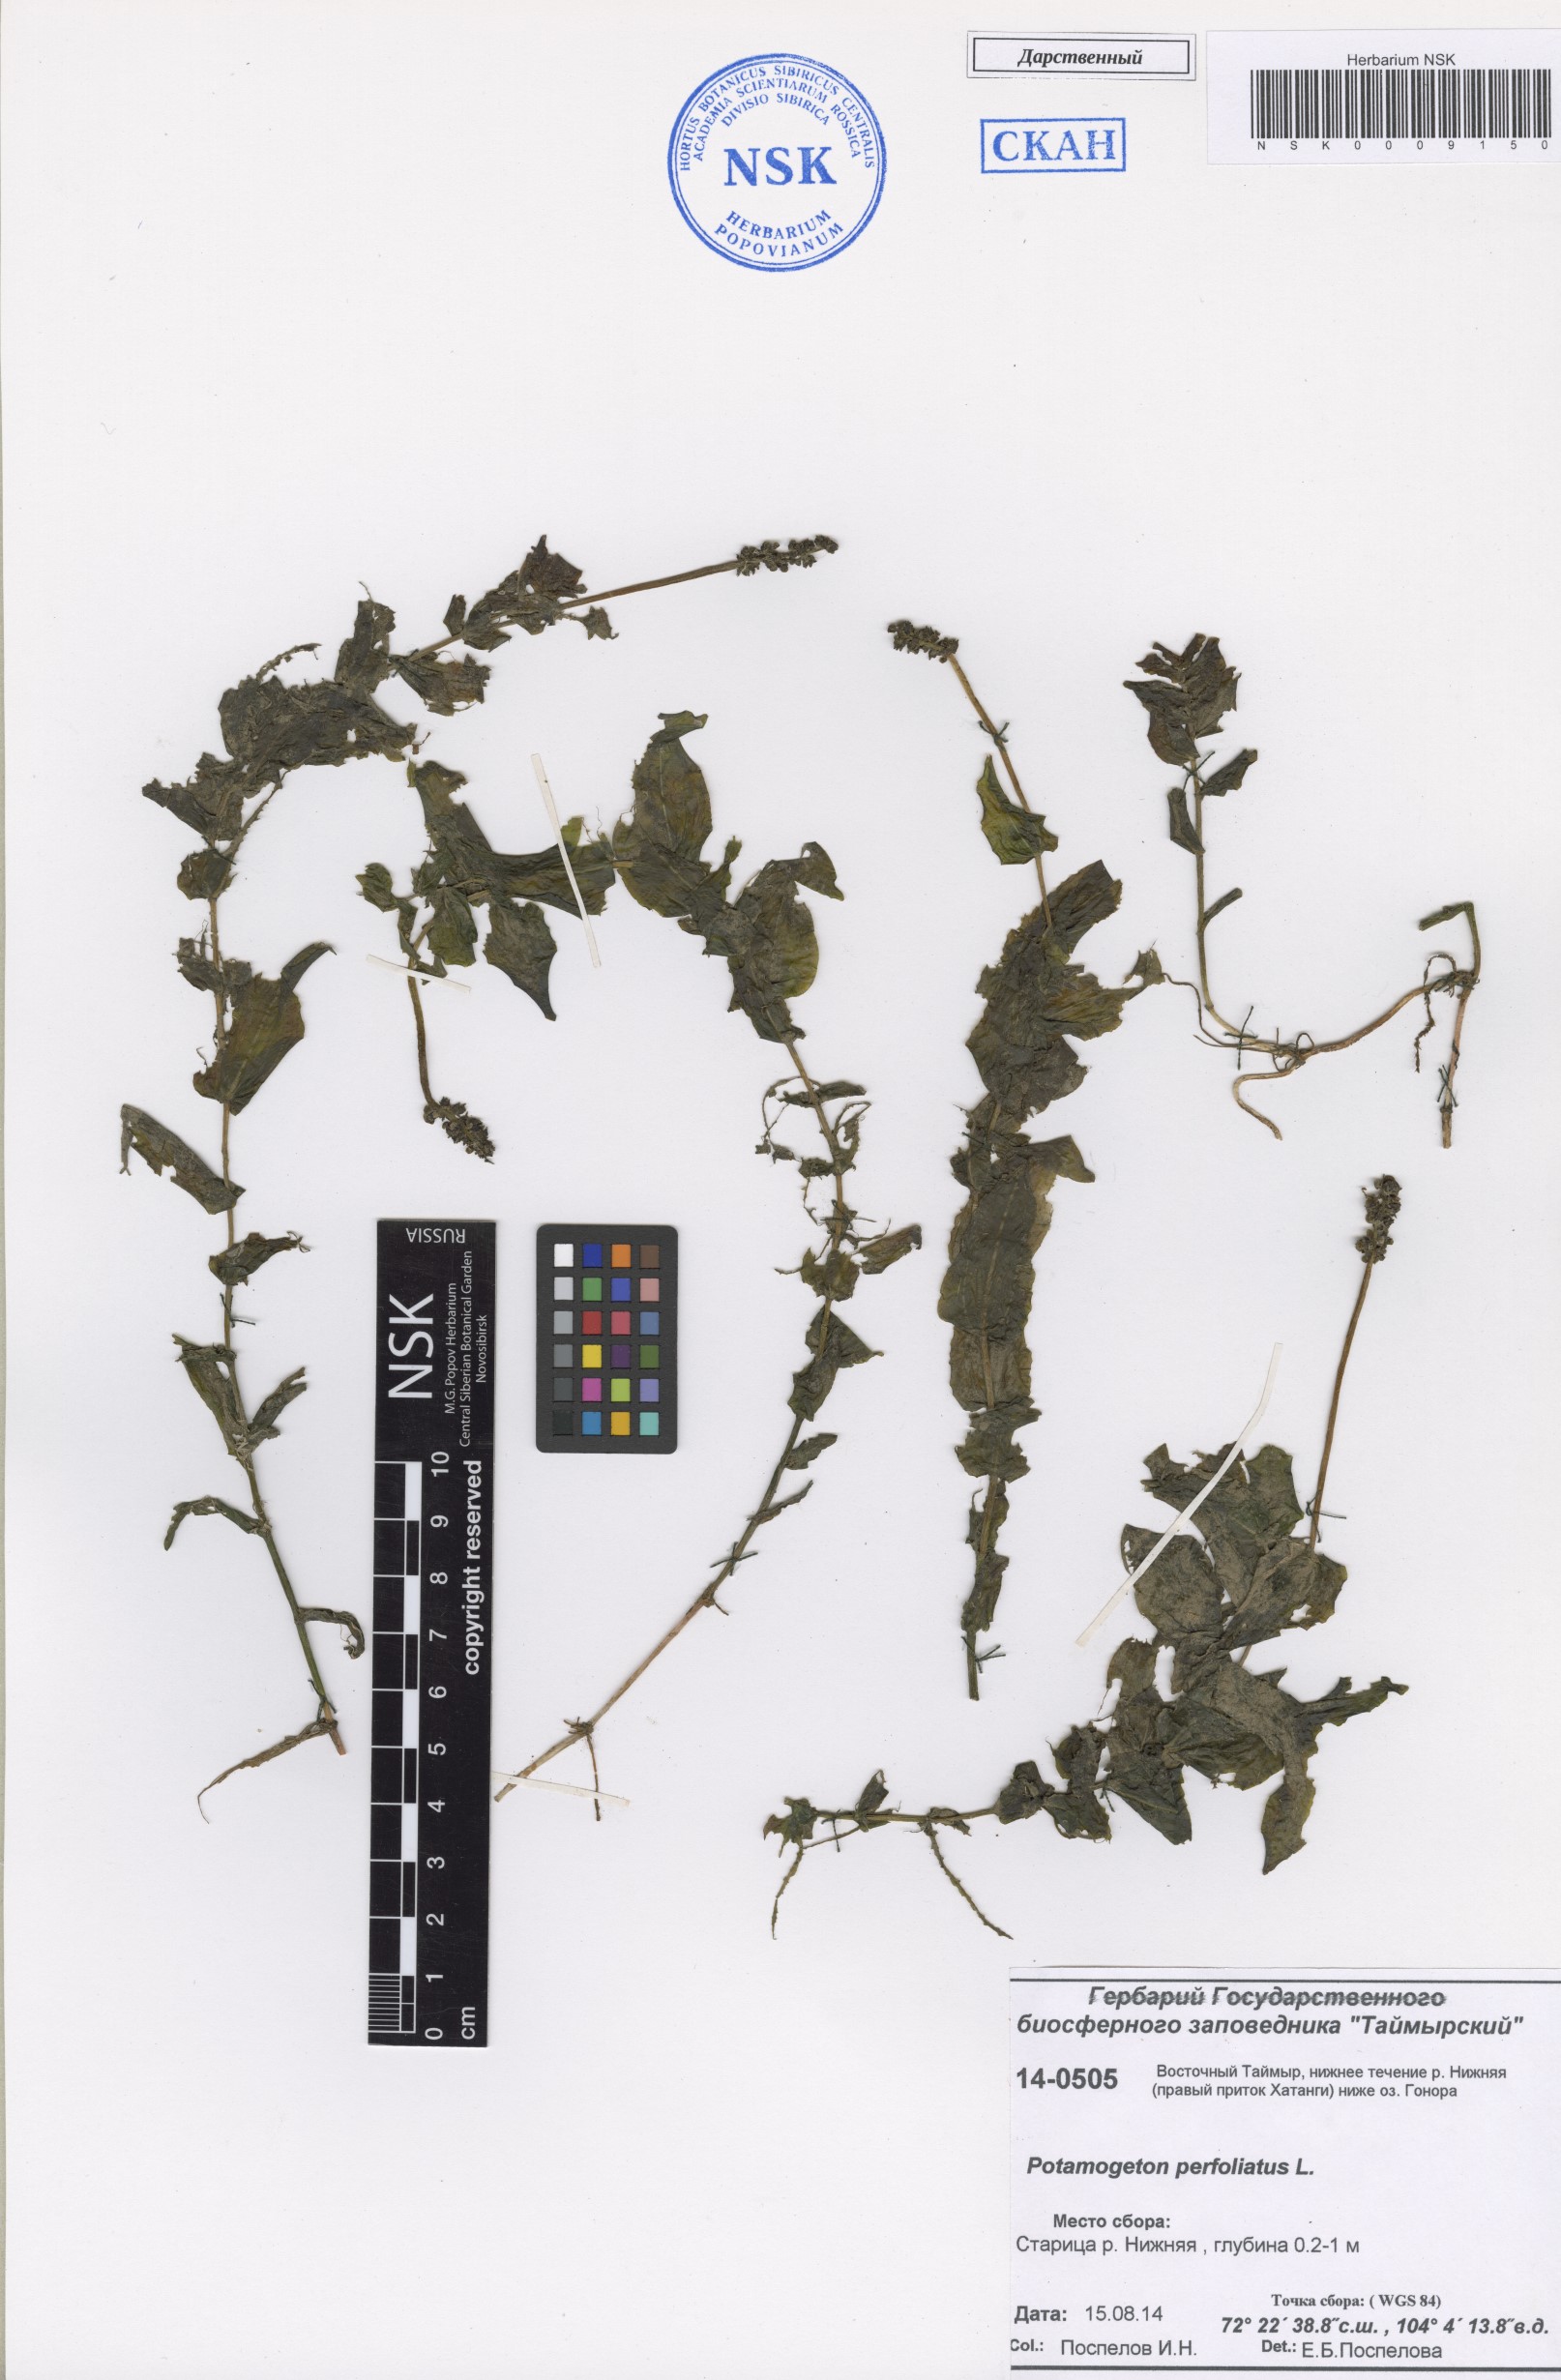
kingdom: Plantae
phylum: Tracheophyta
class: Liliopsida
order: Alismatales
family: Potamogetonaceae
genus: Potamogeton
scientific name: Potamogeton perfoliatus
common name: Perfoliate pondweed
